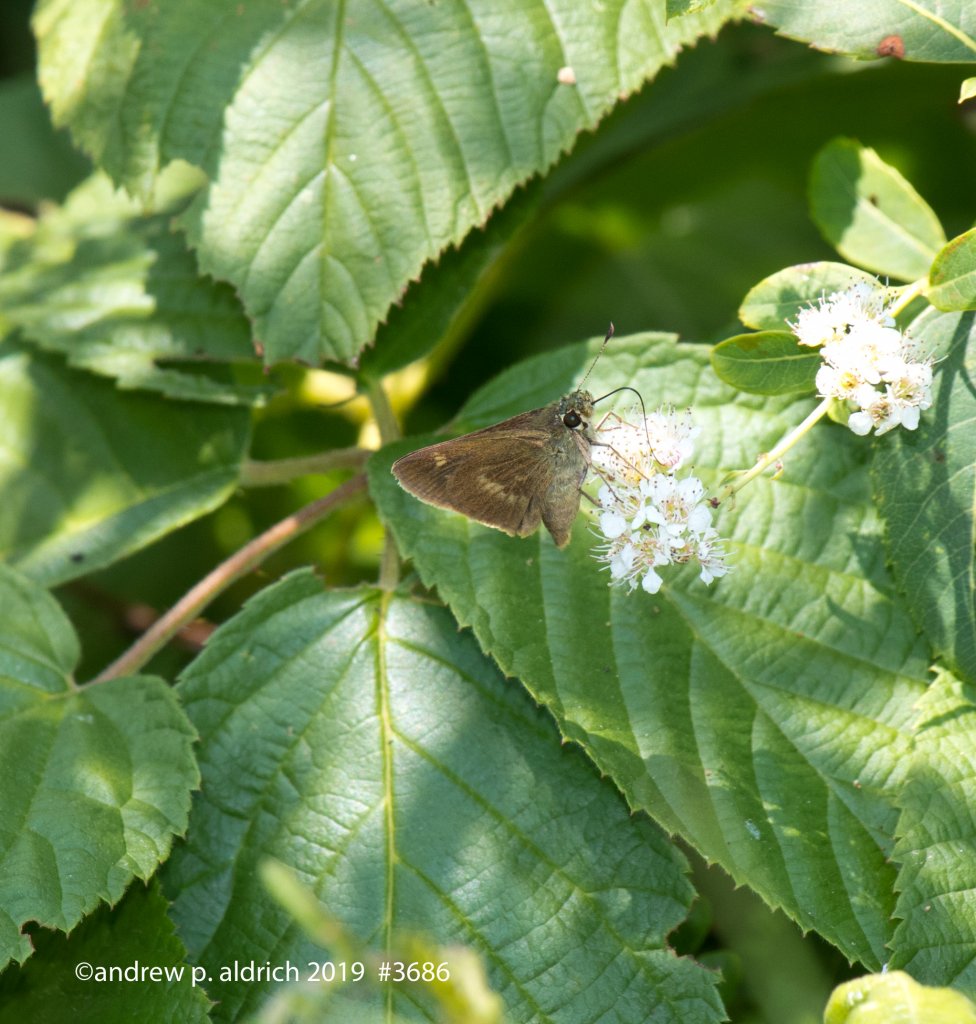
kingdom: Animalia
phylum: Arthropoda
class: Insecta
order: Lepidoptera
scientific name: Lepidoptera
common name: Butterflies
